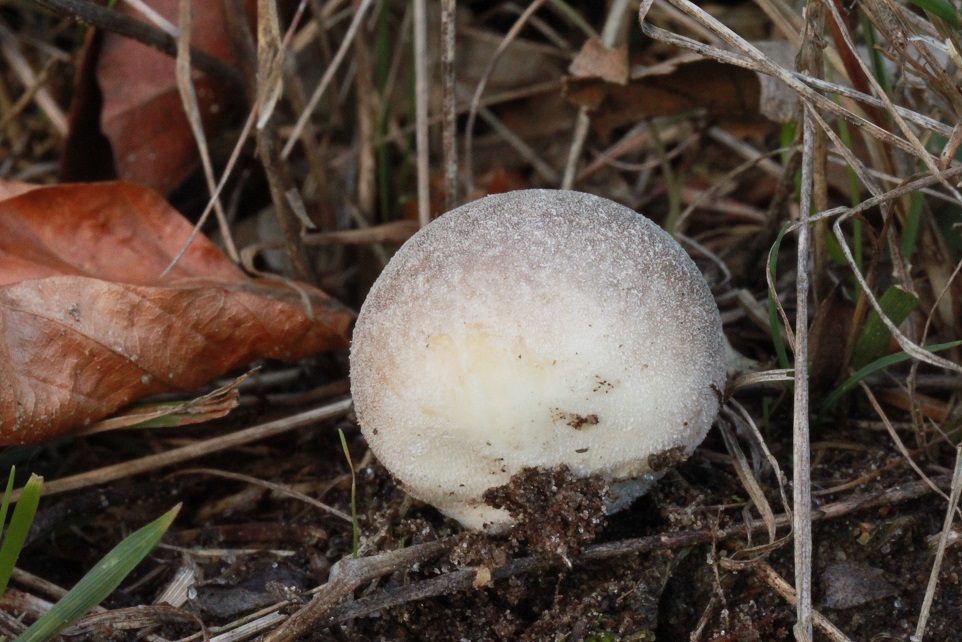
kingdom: Fungi
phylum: Basidiomycota
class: Agaricomycetes
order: Agaricales
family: Lycoperdaceae
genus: Bovista
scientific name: Bovista furfuracea
